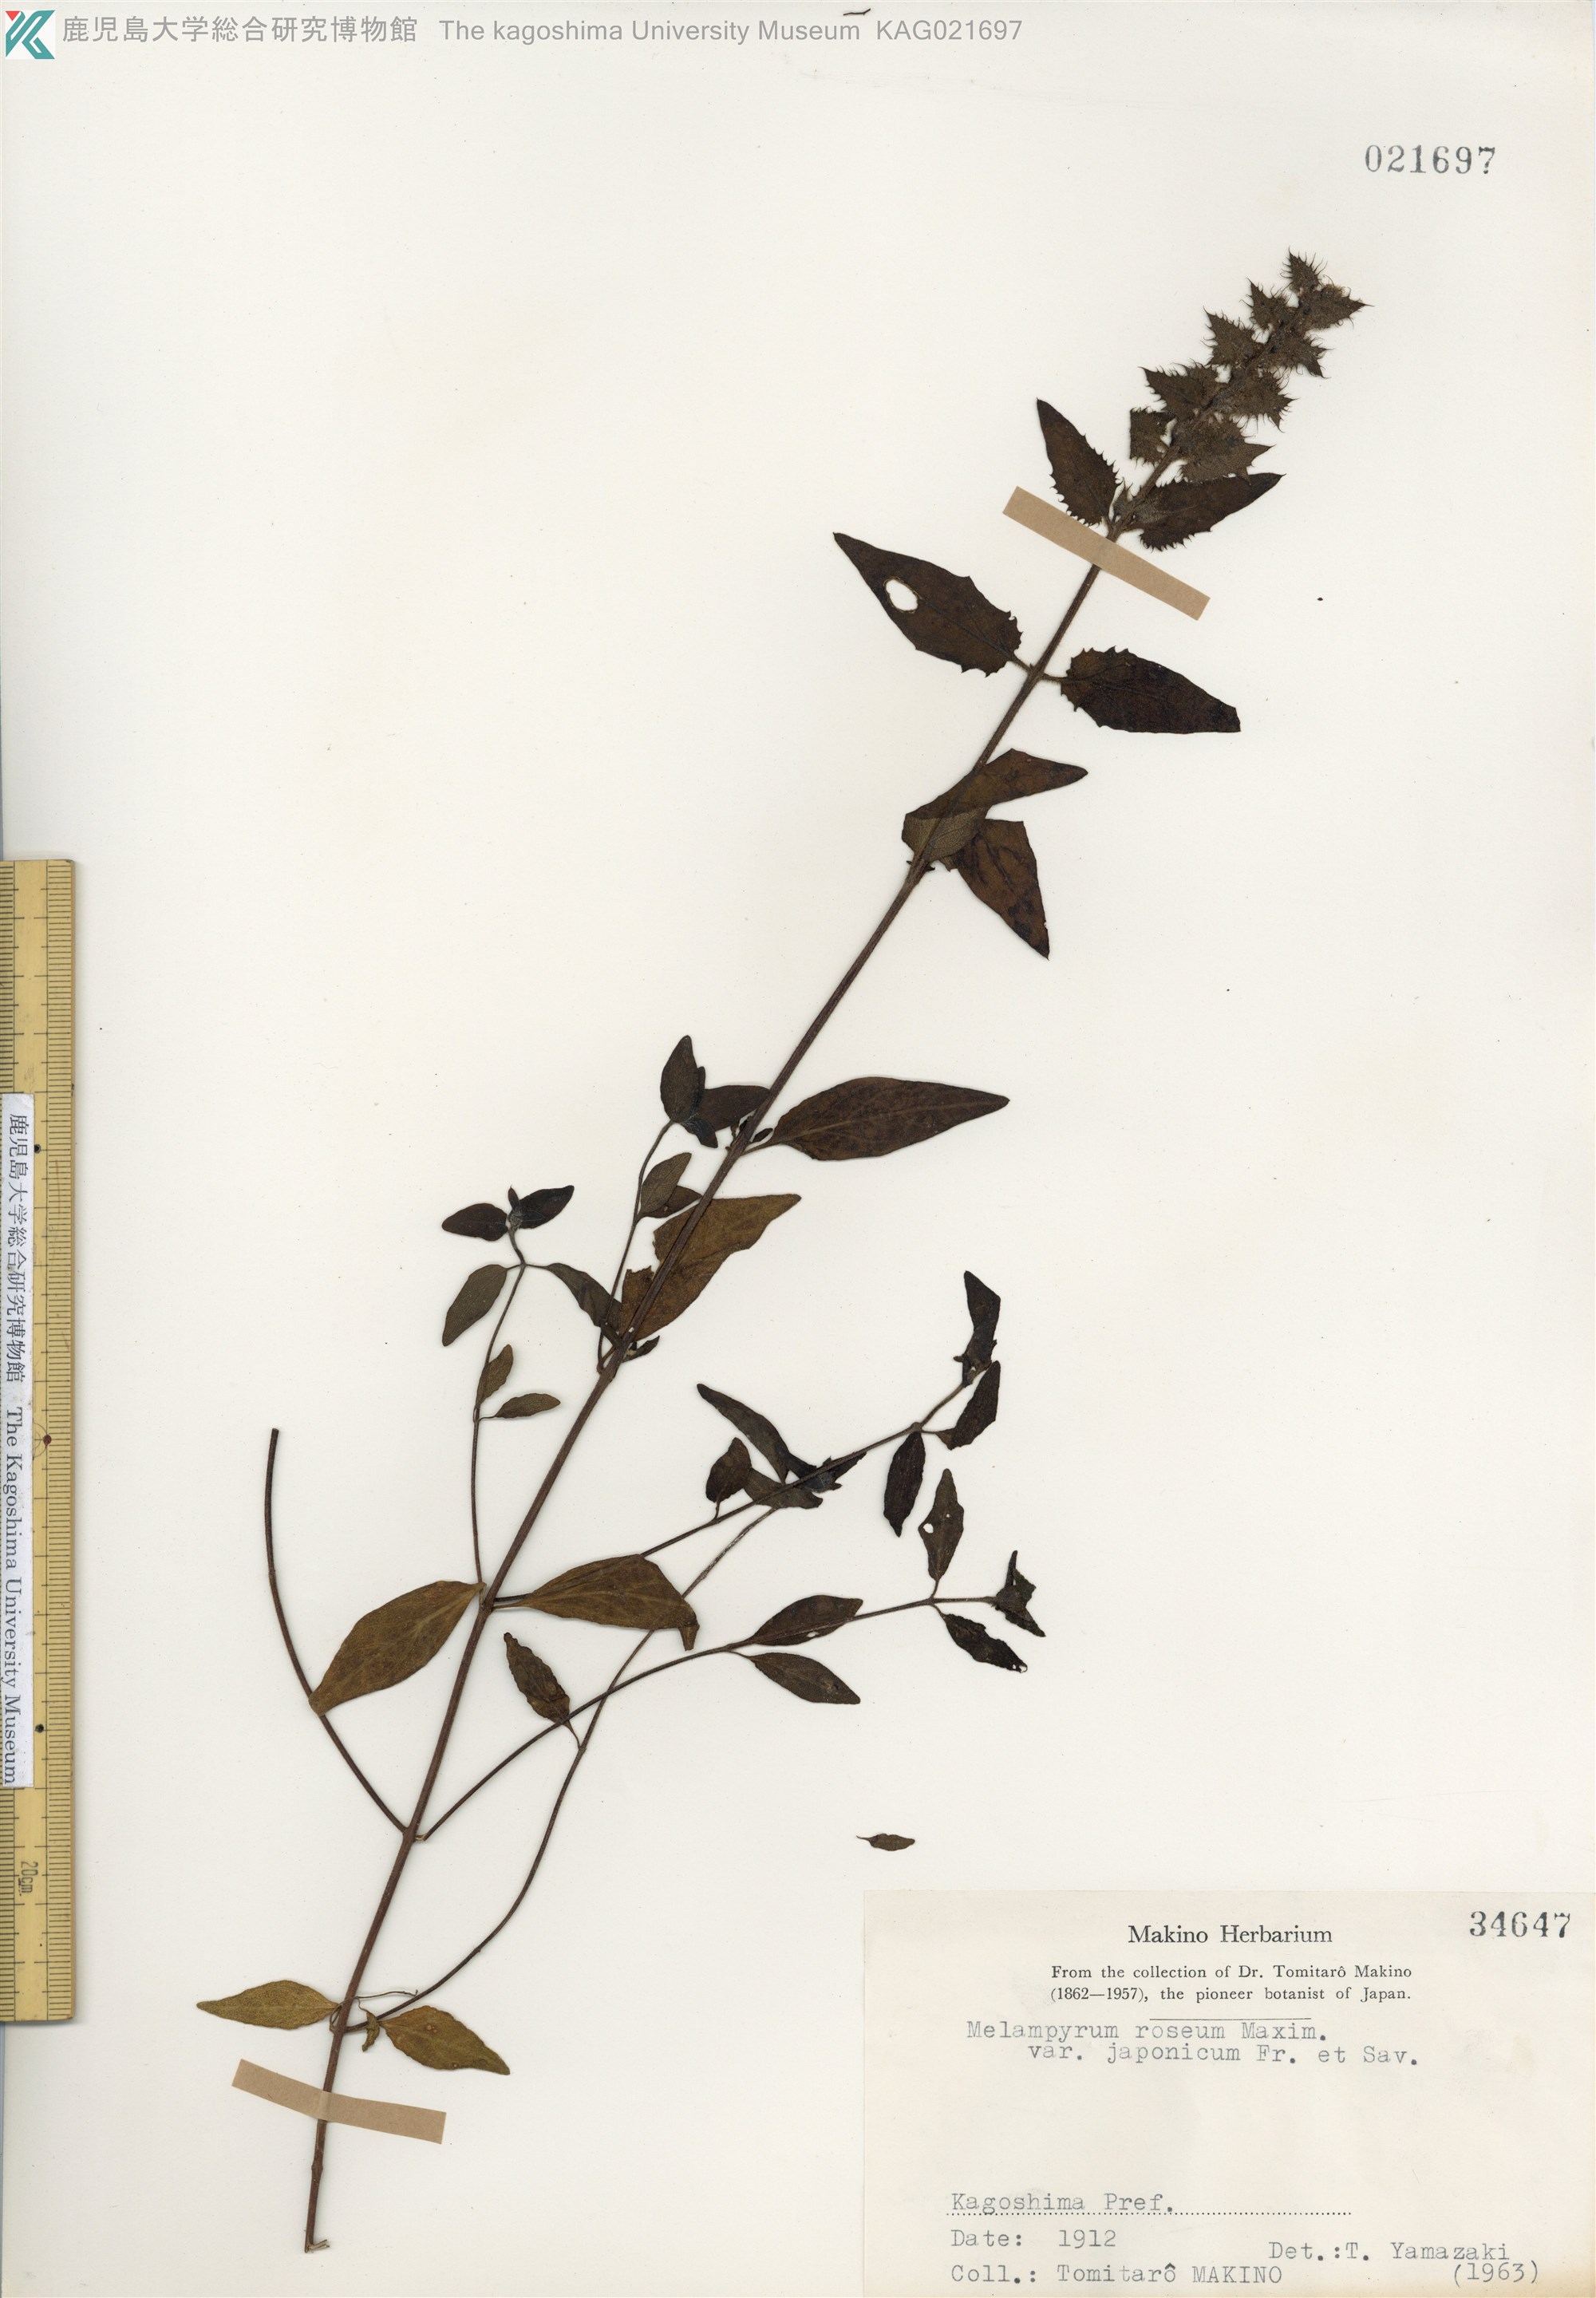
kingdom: Plantae
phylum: Tracheophyta
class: Magnoliopsida
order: Lamiales
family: Orobanchaceae
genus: Melampyrum
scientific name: Melampyrum roseum
